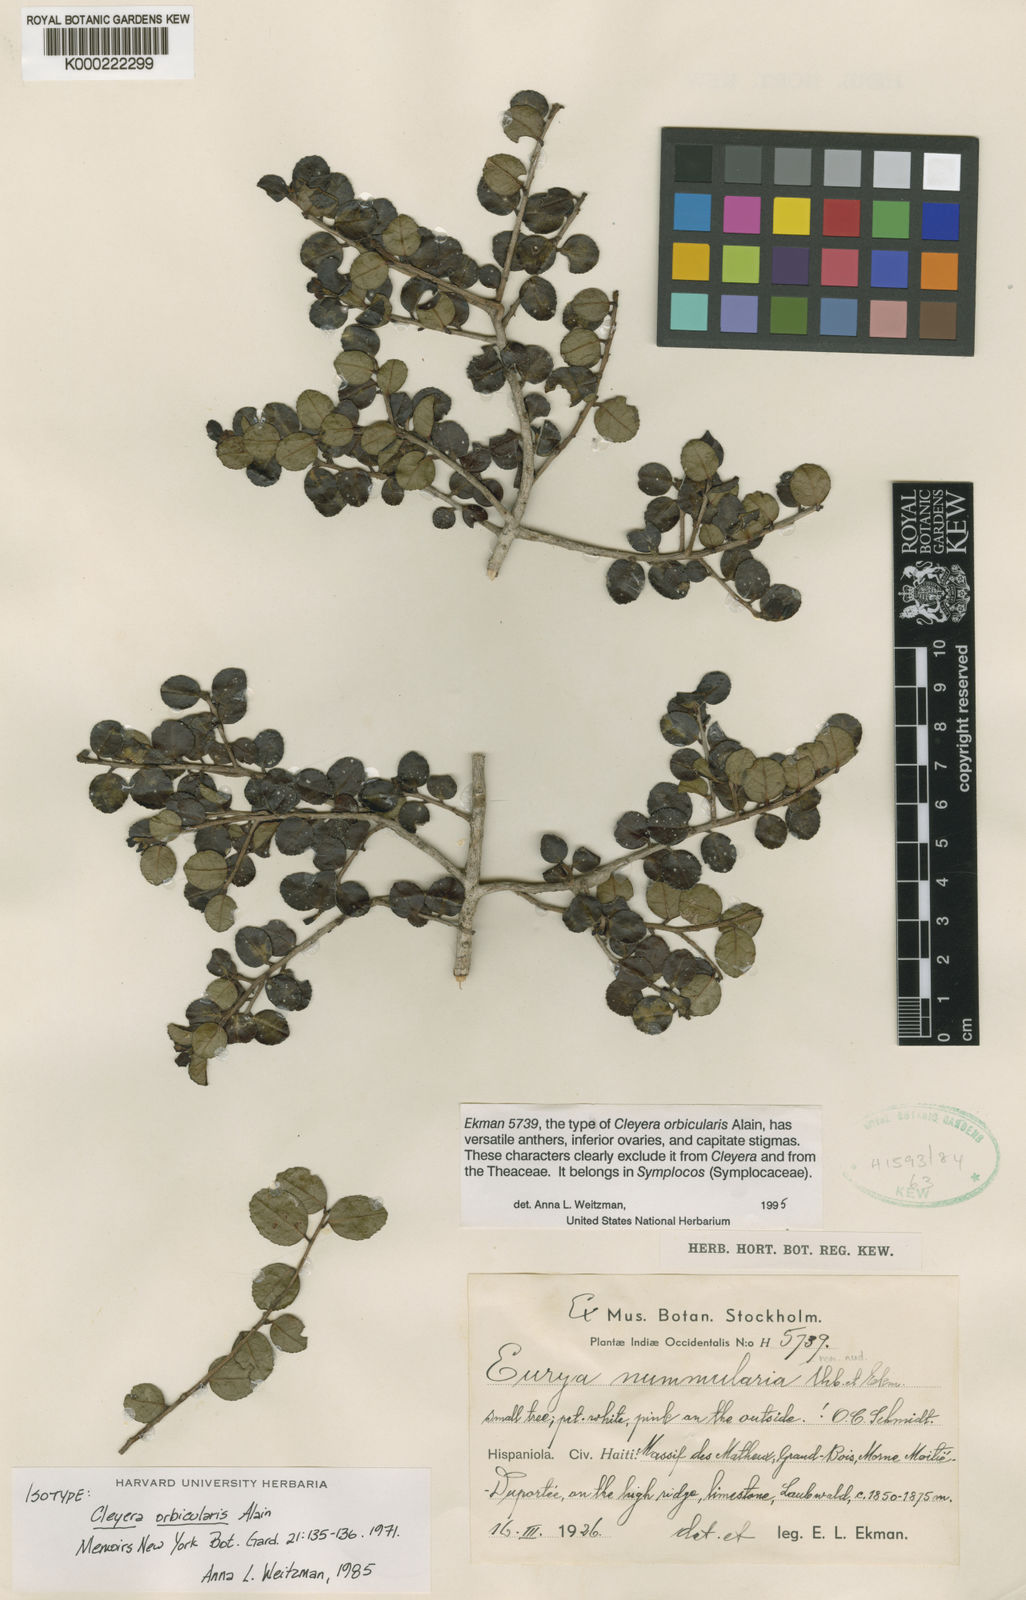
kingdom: Plantae
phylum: Tracheophyta
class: Magnoliopsida
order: Ericales
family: Pentaphylacaceae
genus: Cleyera
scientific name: Cleyera orbicularis
